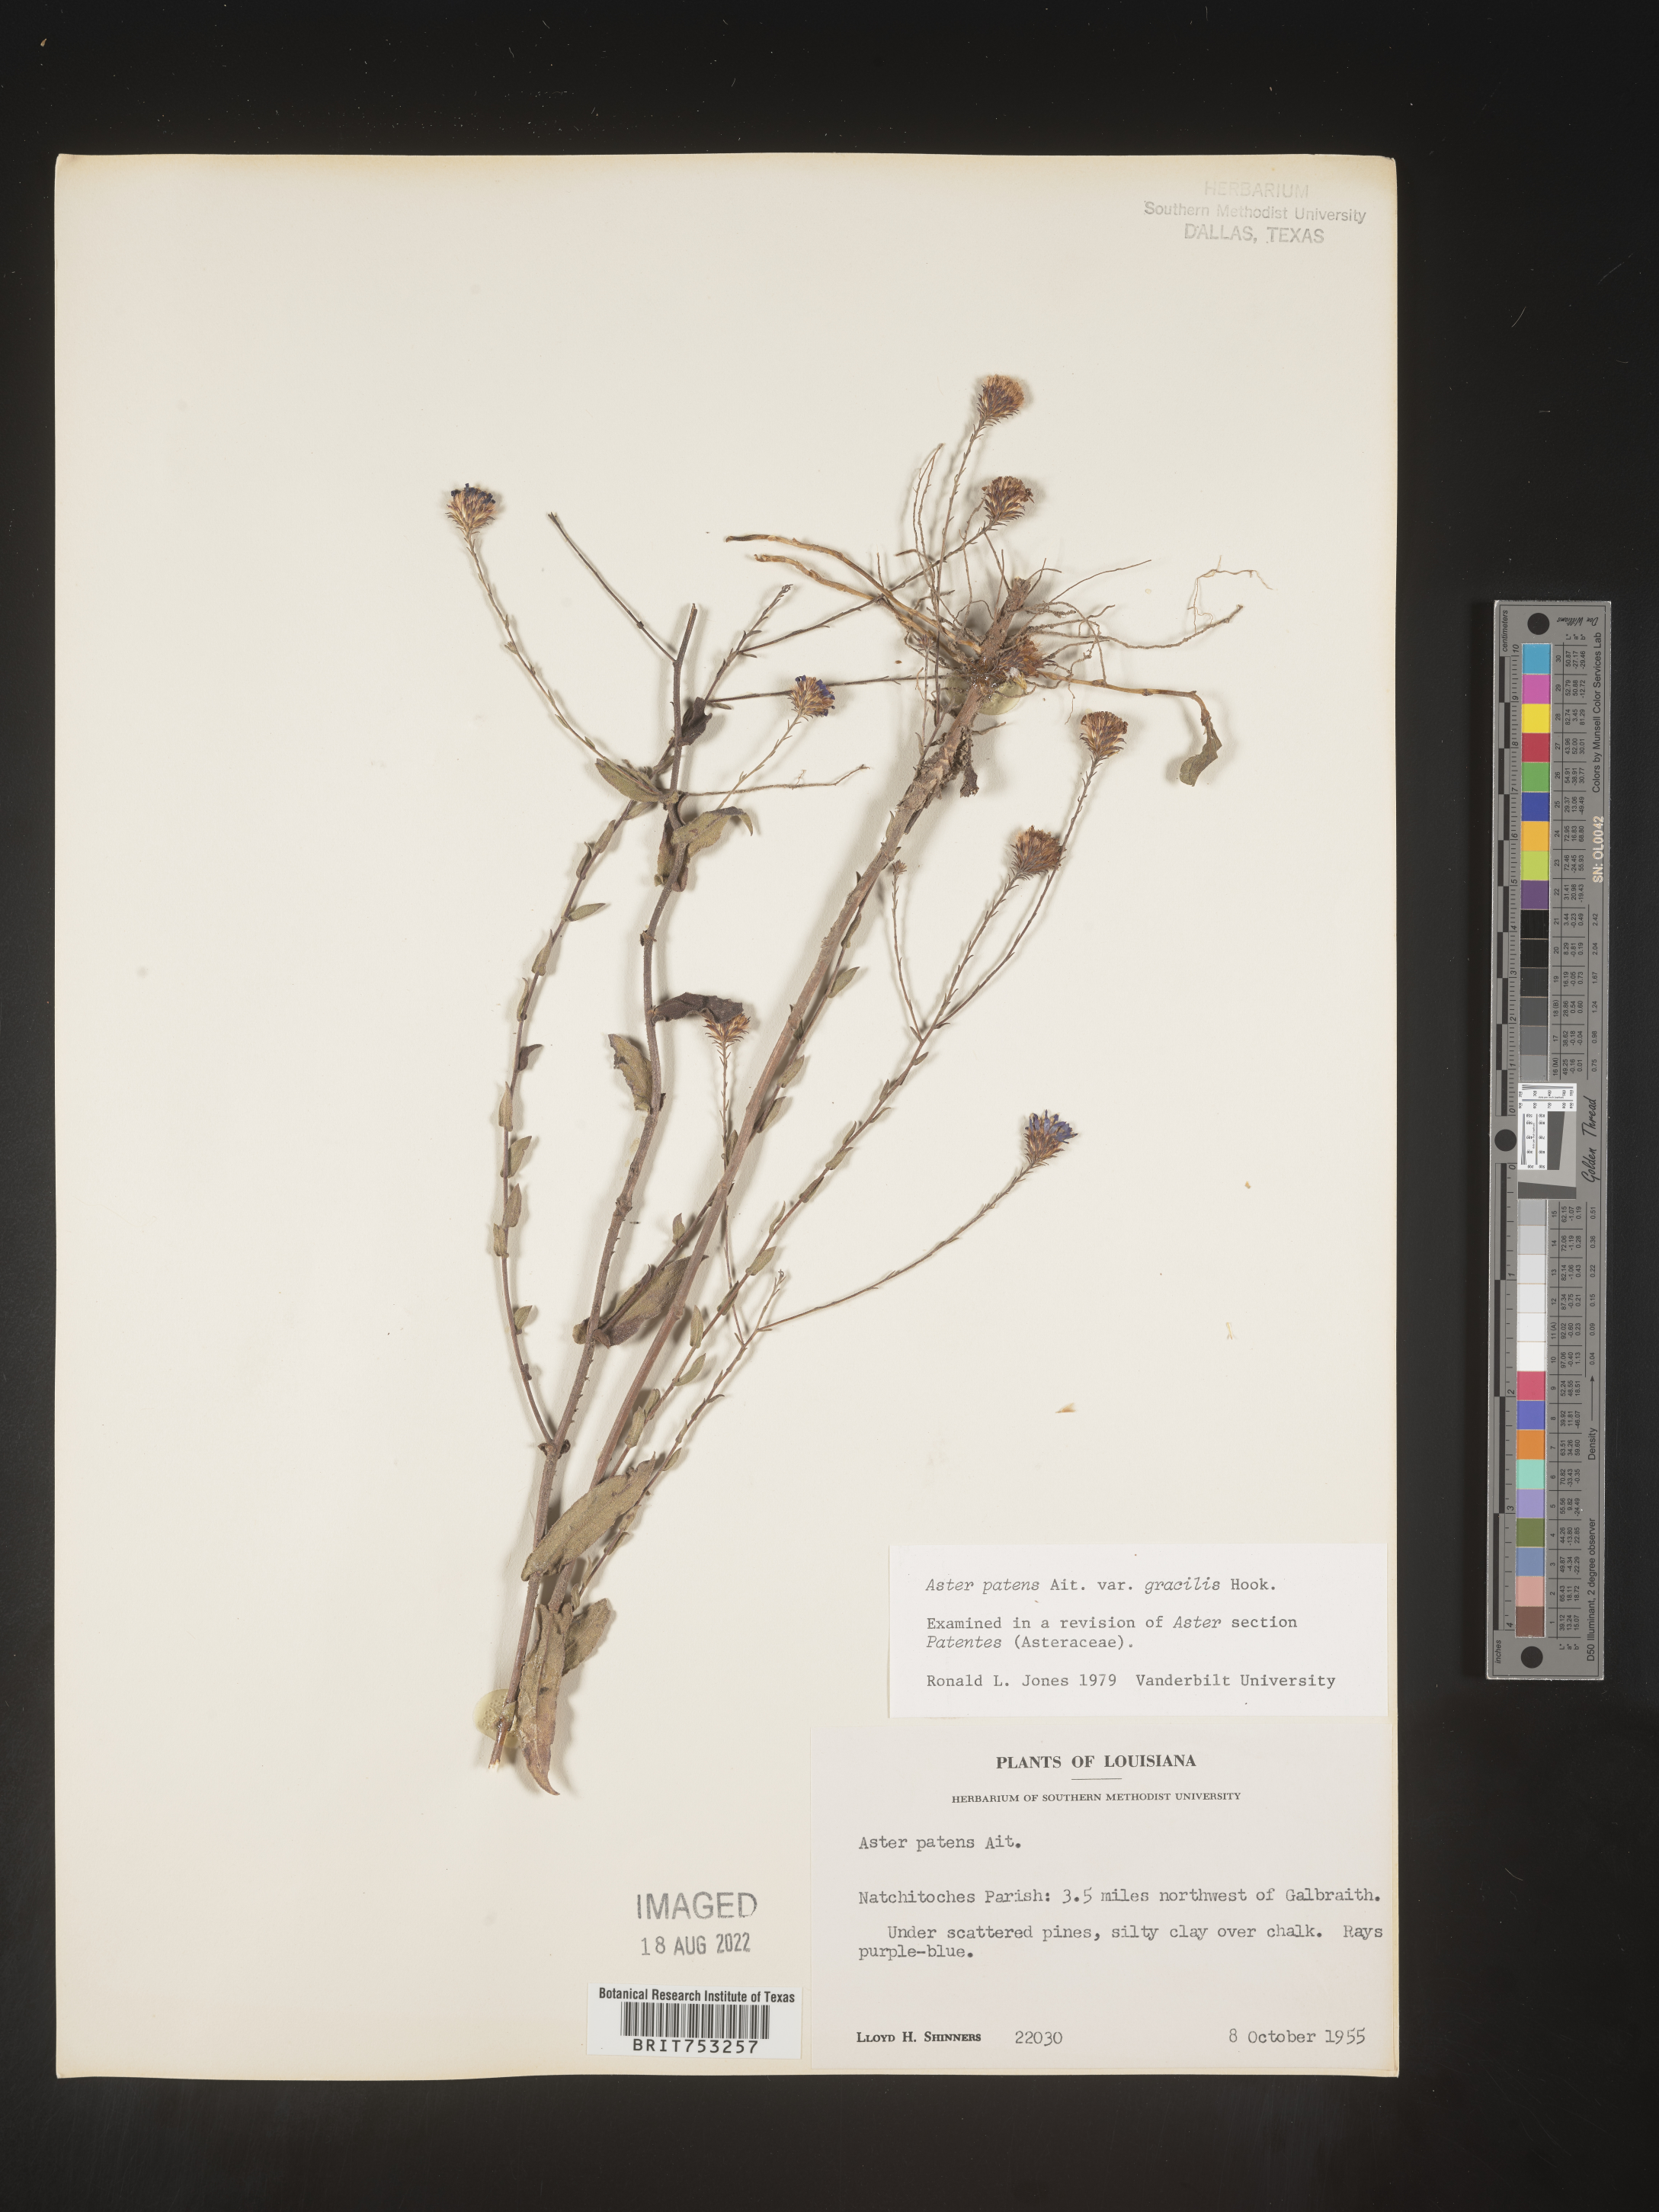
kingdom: Plantae
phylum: Tracheophyta
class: Magnoliopsida
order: Asterales
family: Asteraceae
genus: Symphyotrichum
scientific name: Symphyotrichum patens
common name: Late purple aster
